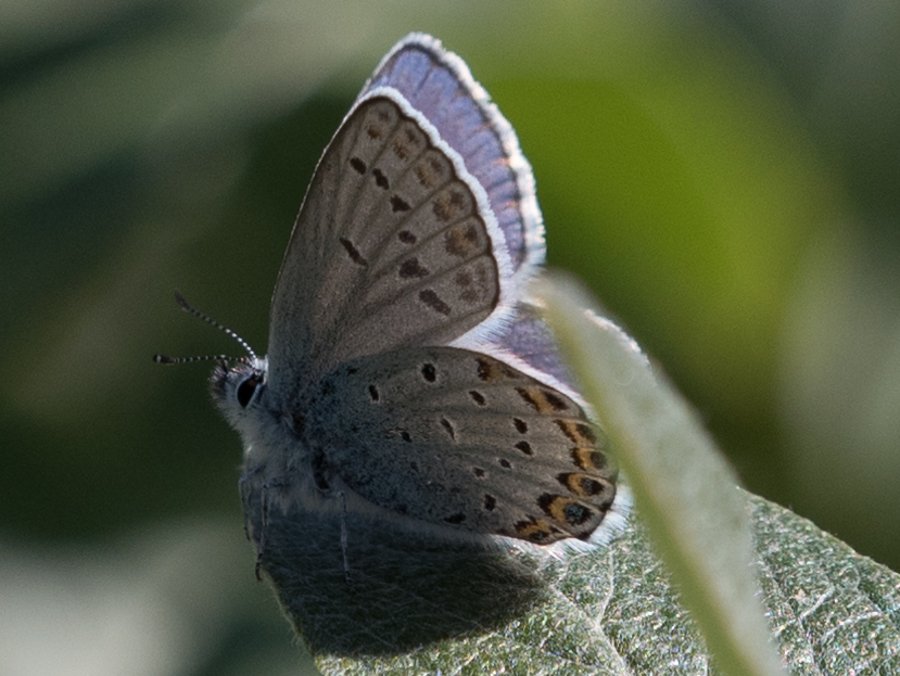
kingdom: Animalia
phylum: Arthropoda
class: Insecta
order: Lepidoptera
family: Lycaenidae
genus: Lycaeides
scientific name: Lycaeides idas
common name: Northern Blue
